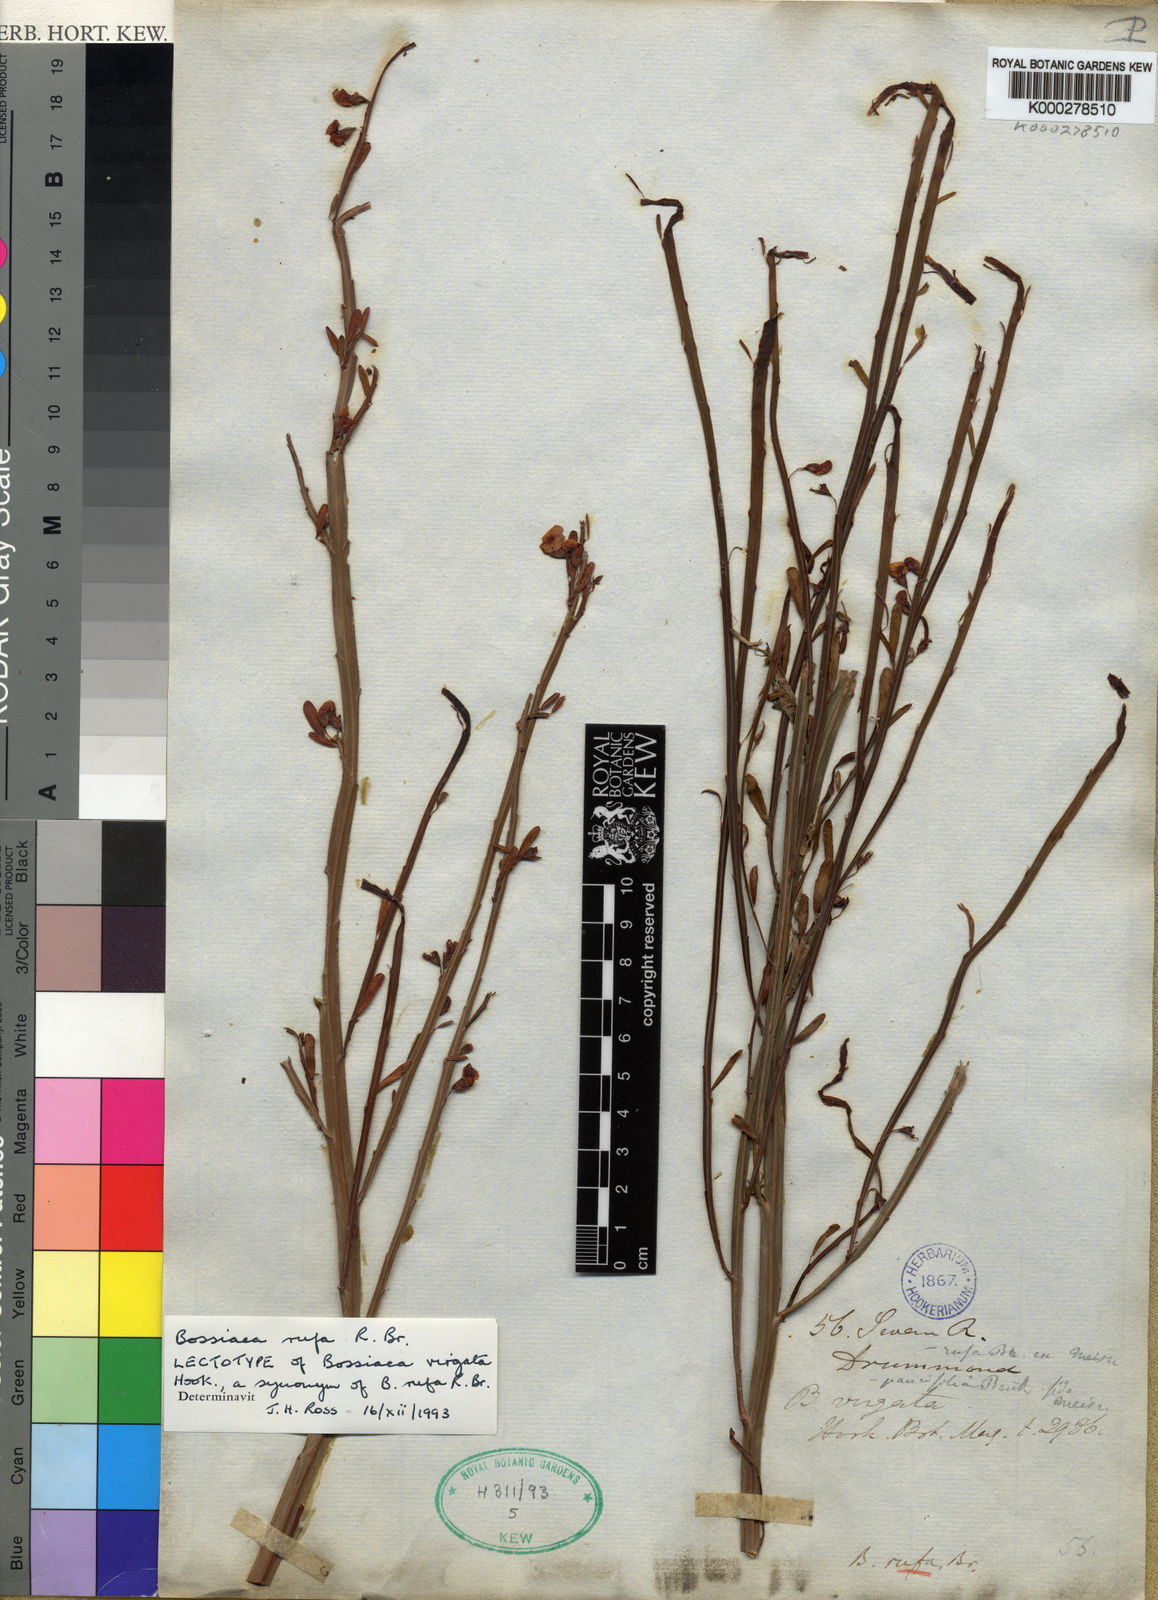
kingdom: Plantae
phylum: Tracheophyta
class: Magnoliopsida
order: Fabales
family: Fabaceae
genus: Bossiaea
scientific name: Bossiaea rufa
